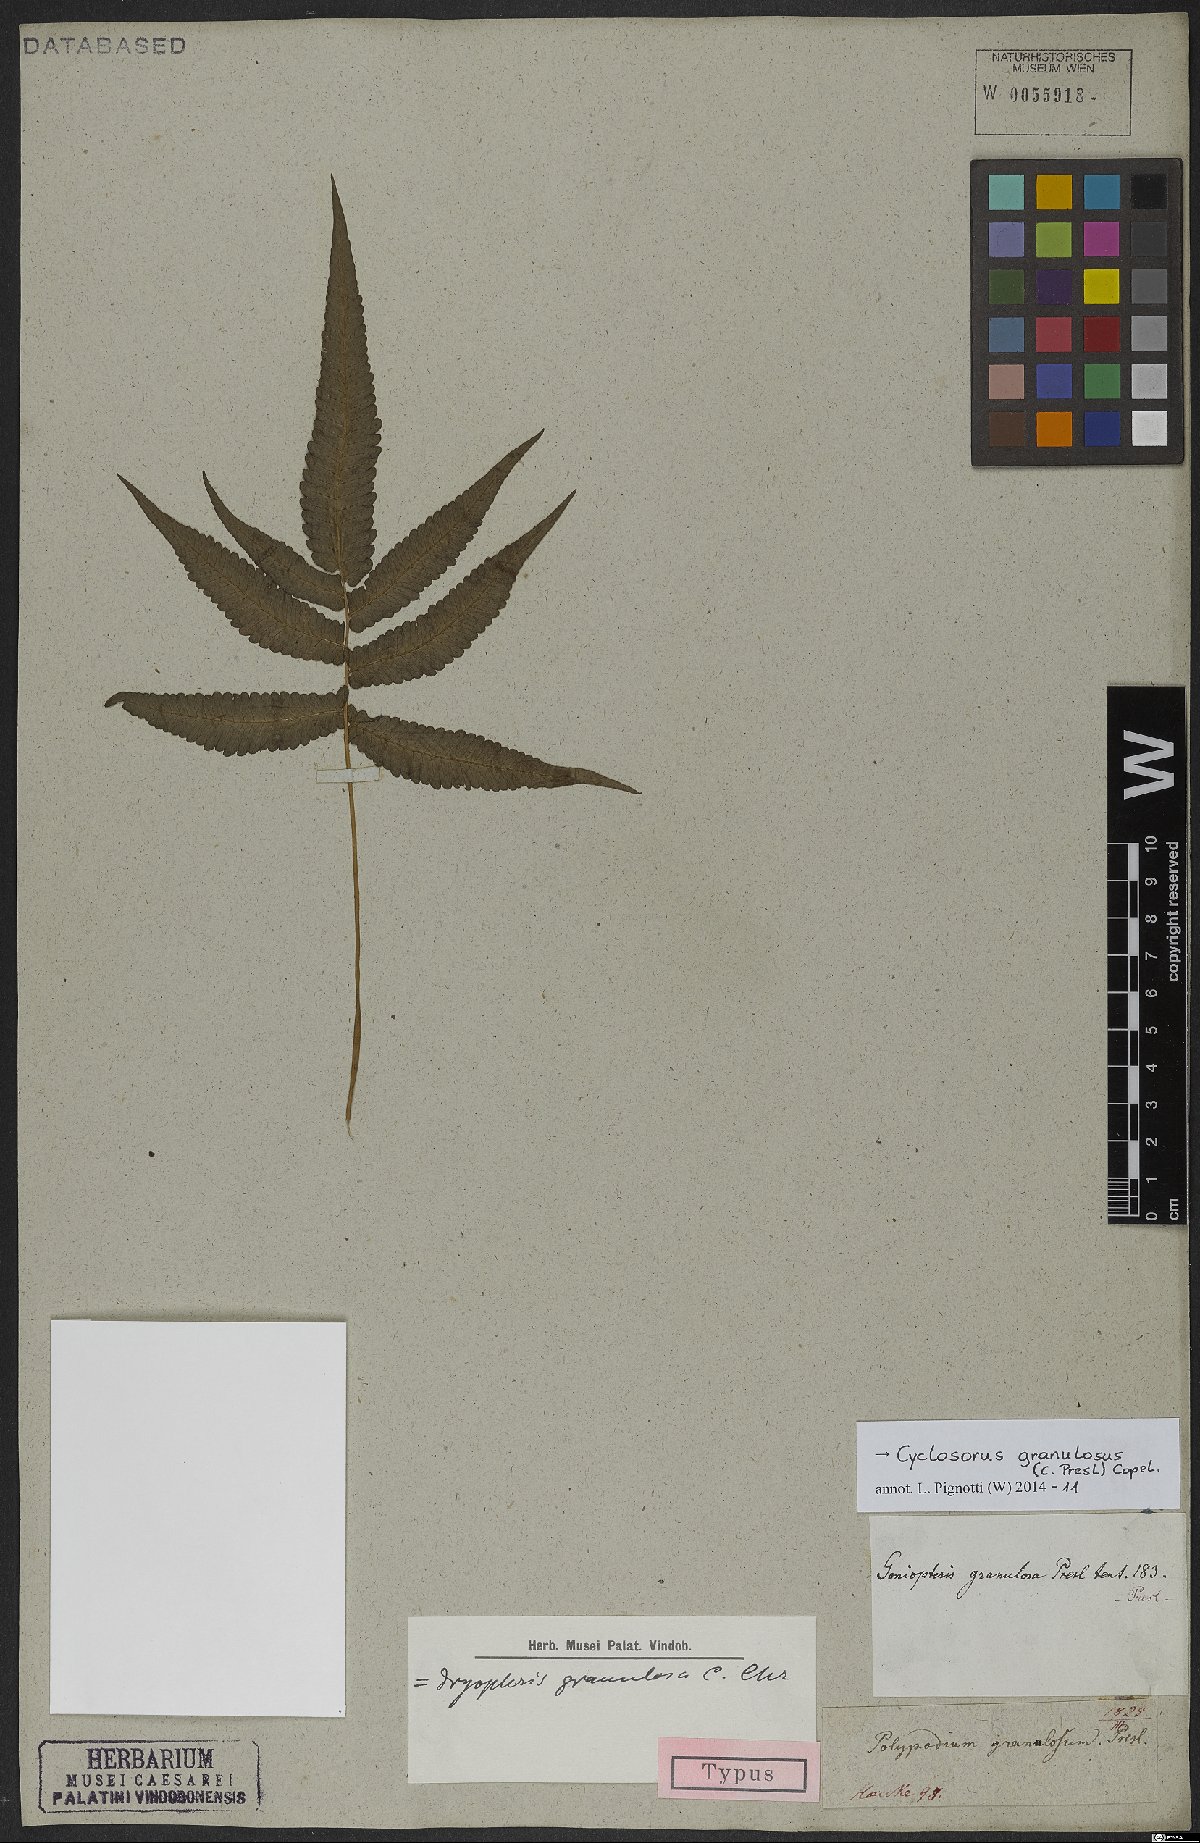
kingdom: Plantae
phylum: Tracheophyta
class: Polypodiopsida
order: Polypodiales
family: Thelypteridaceae
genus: Pronephrium
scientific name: Pronephrium granulosum
